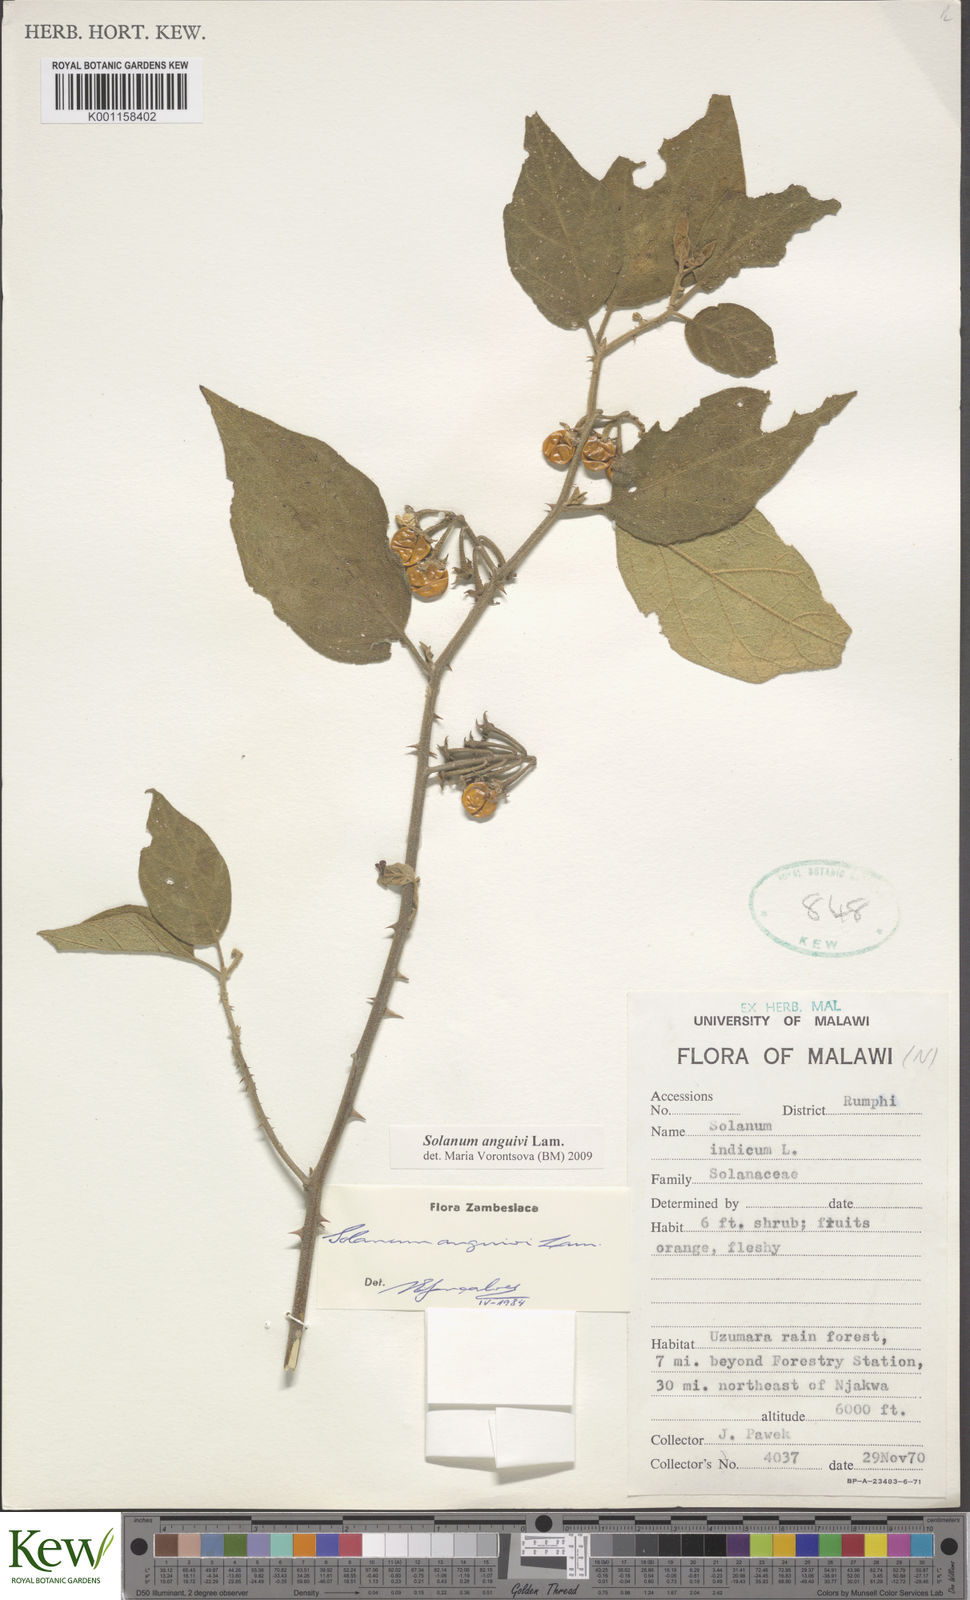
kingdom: Plantae
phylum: Tracheophyta
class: Magnoliopsida
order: Solanales
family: Solanaceae
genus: Solanum
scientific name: Solanum anguivi
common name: Forest bitterberry
